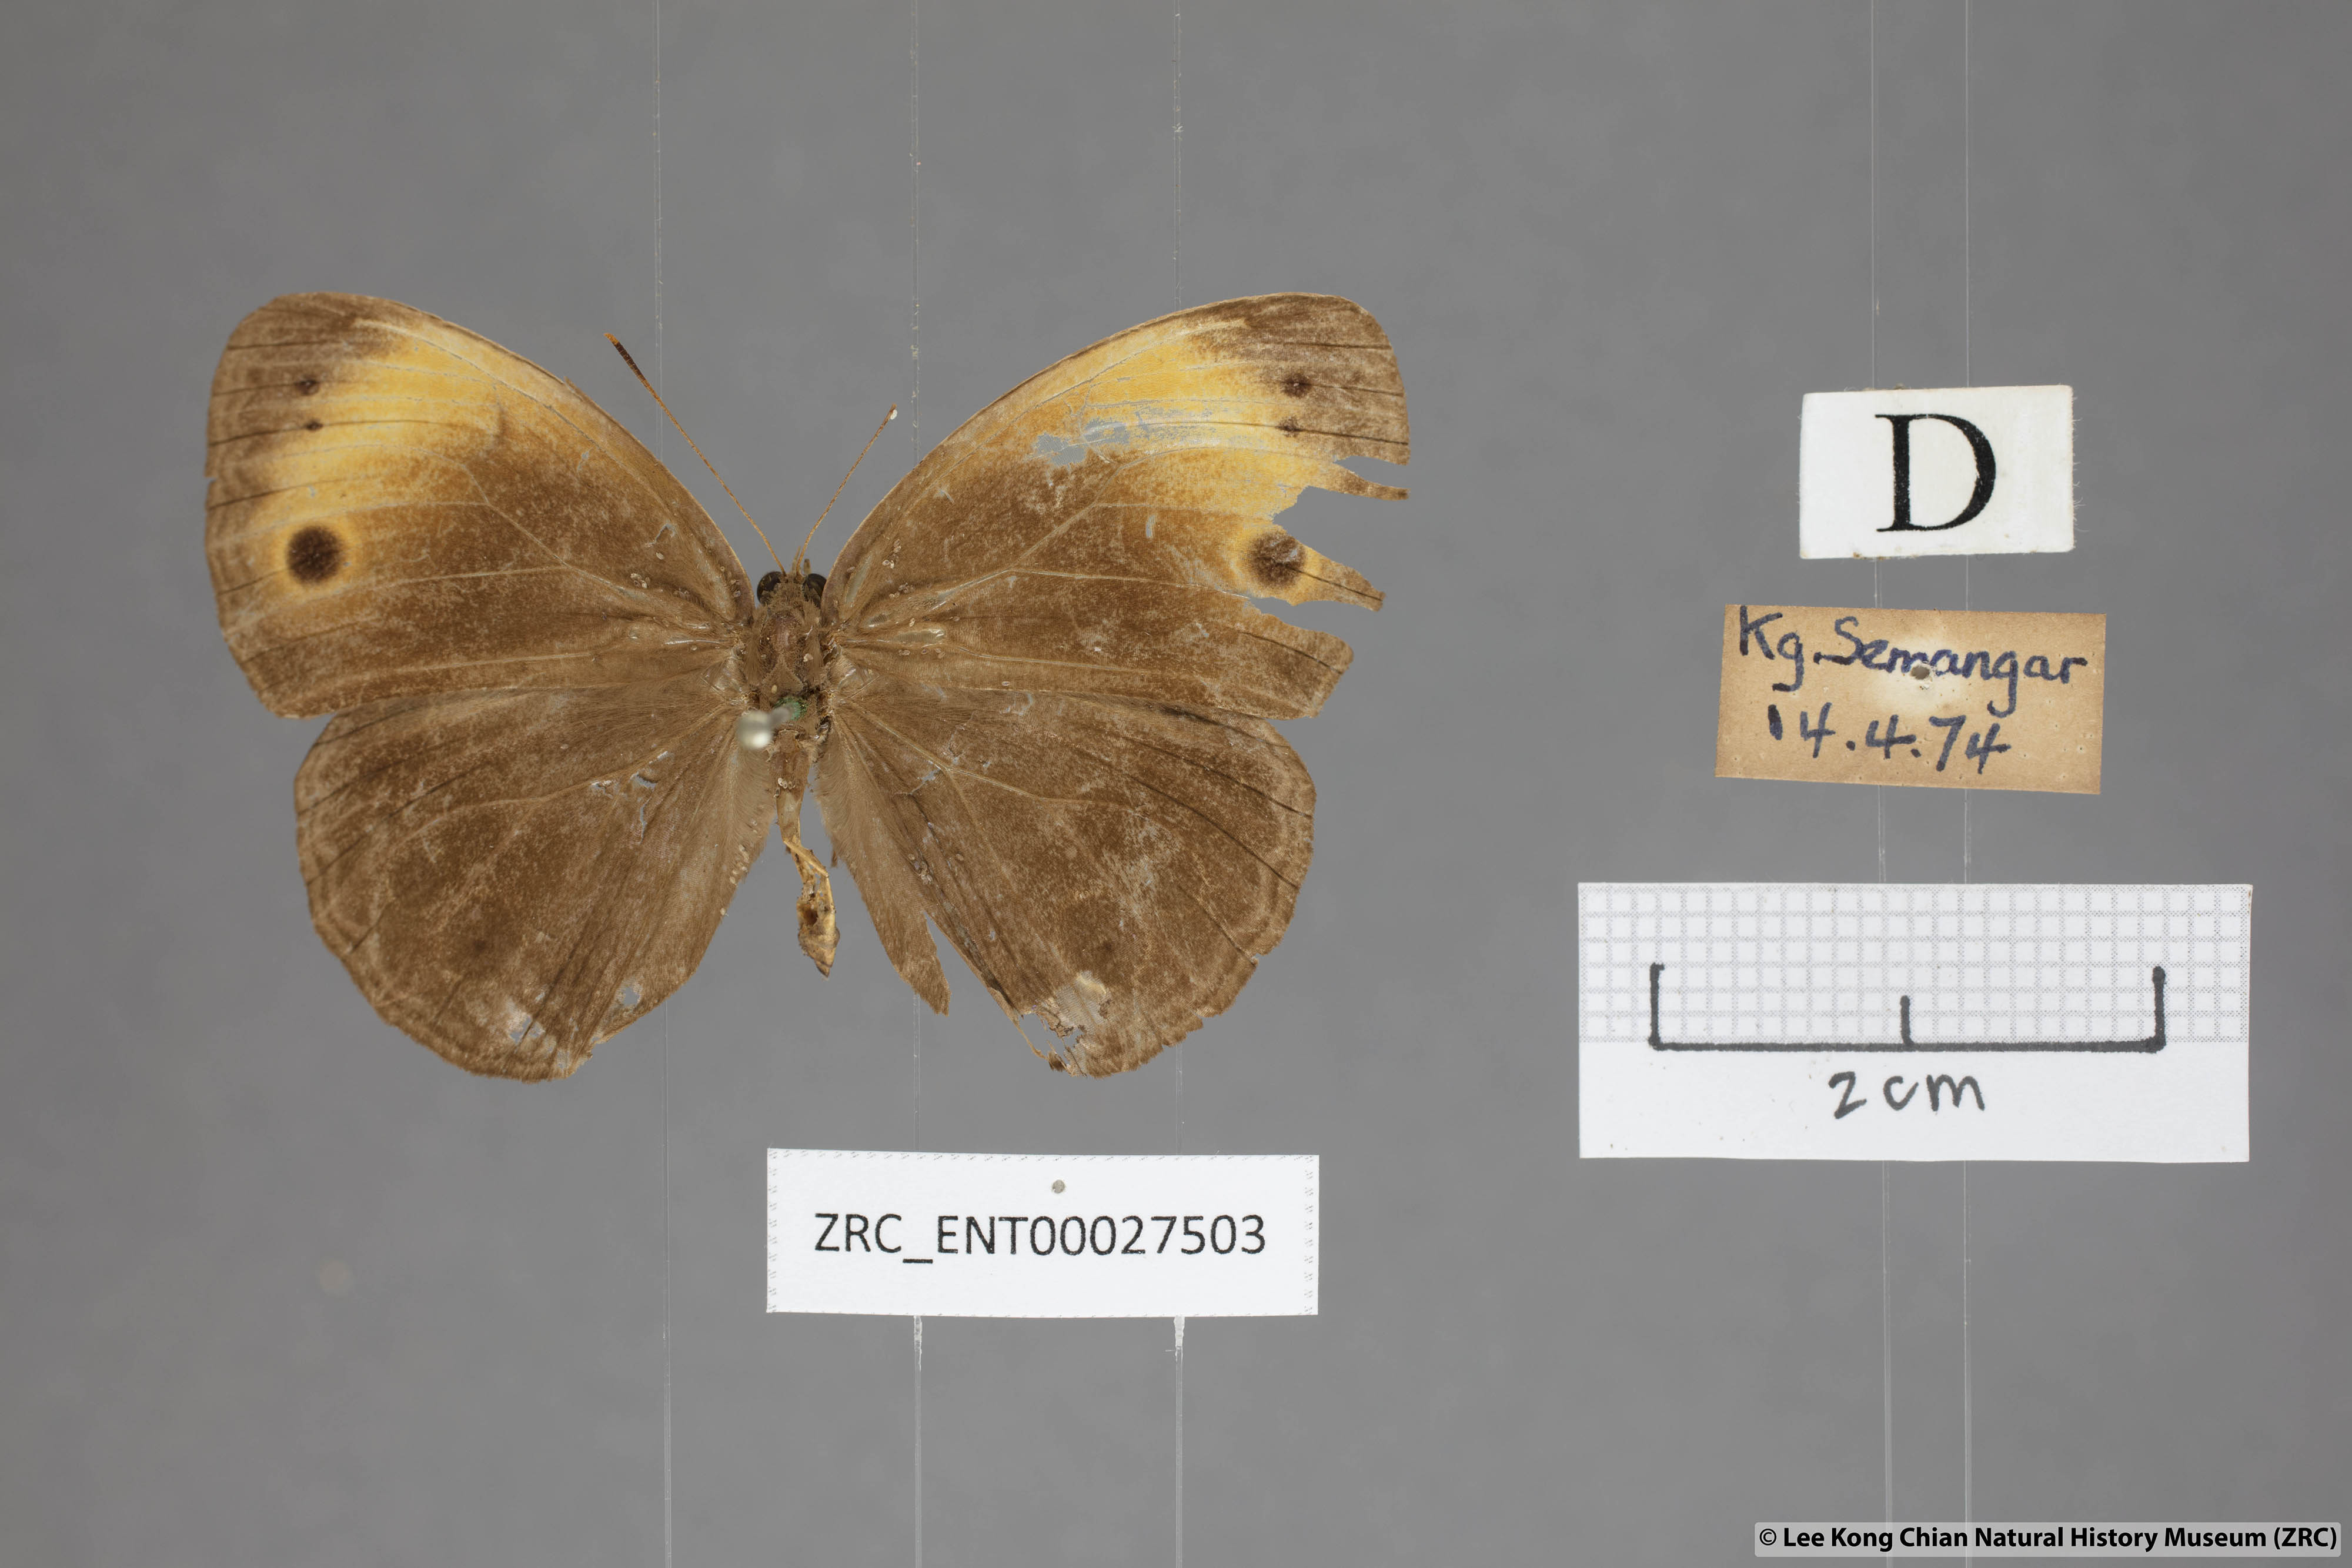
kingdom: Animalia
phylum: Arthropoda
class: Insecta
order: Lepidoptera
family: Nymphalidae
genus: Mycalesis
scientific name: Mycalesis maianeas
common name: Bandless bushbrown
